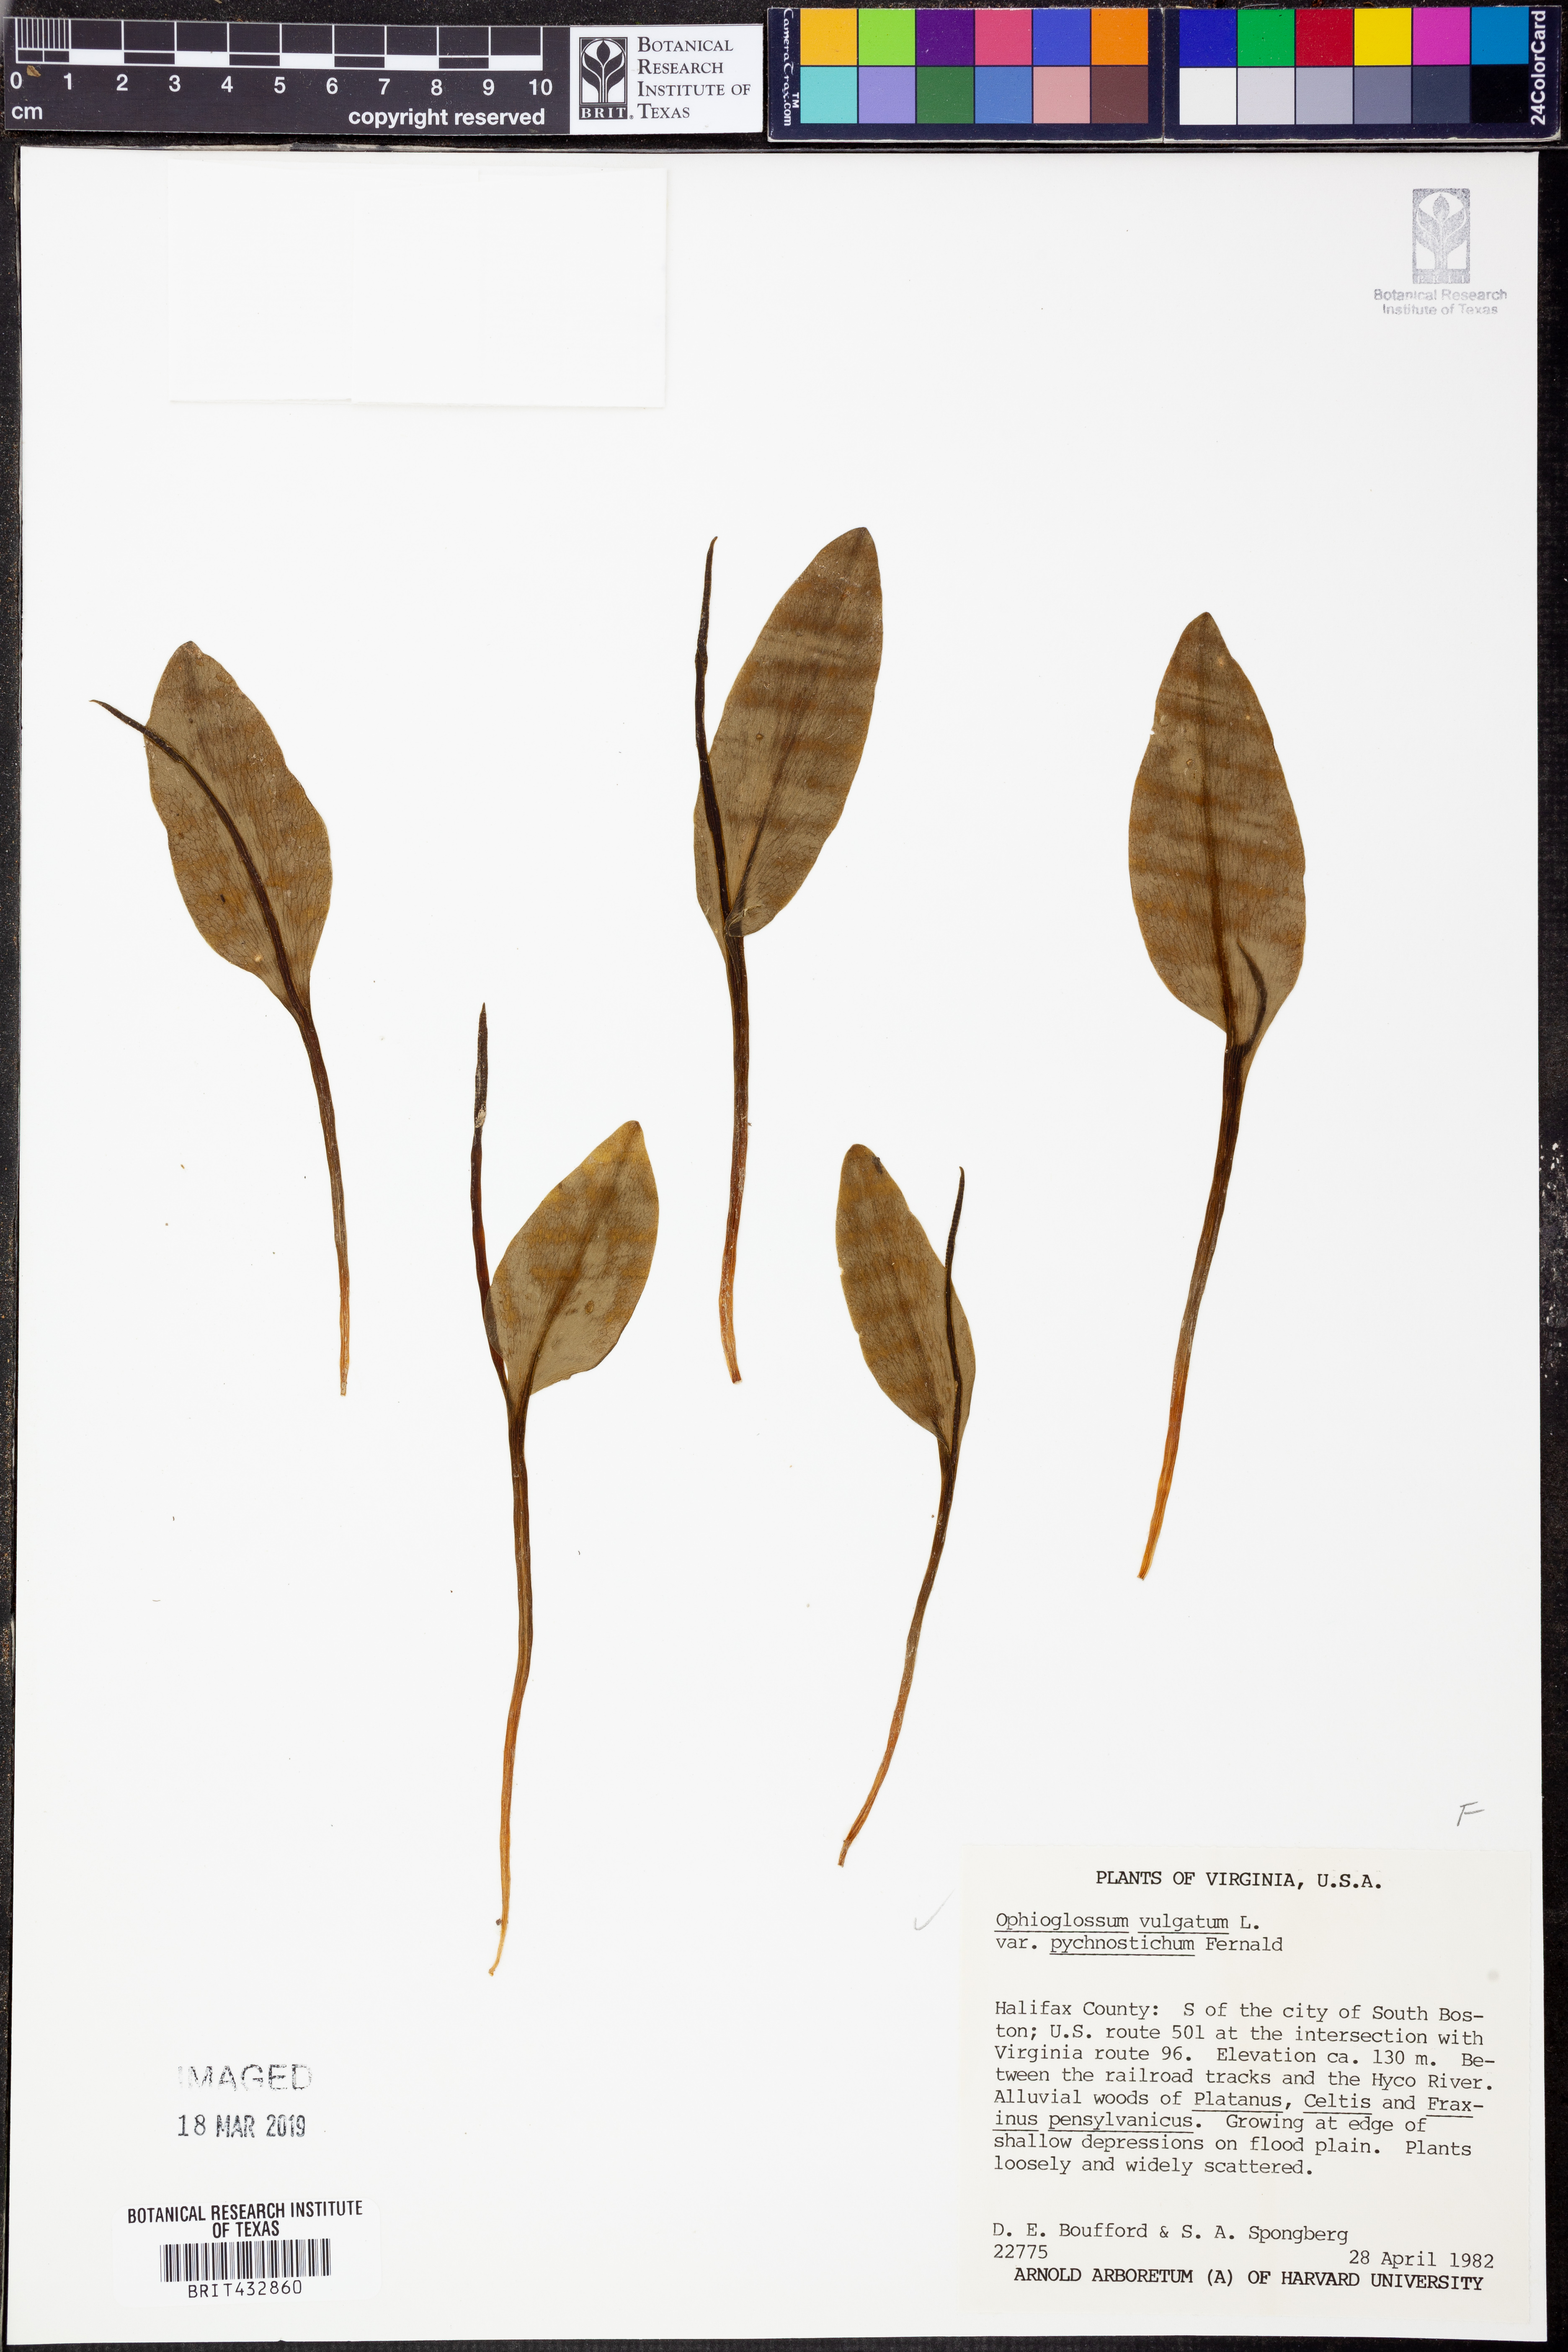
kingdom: Plantae
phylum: Tracheophyta
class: Polypodiopsida
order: Ophioglossales
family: Ophioglossaceae
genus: Ophioglossum
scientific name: Ophioglossum vulgatum
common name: Adder's-tongue
